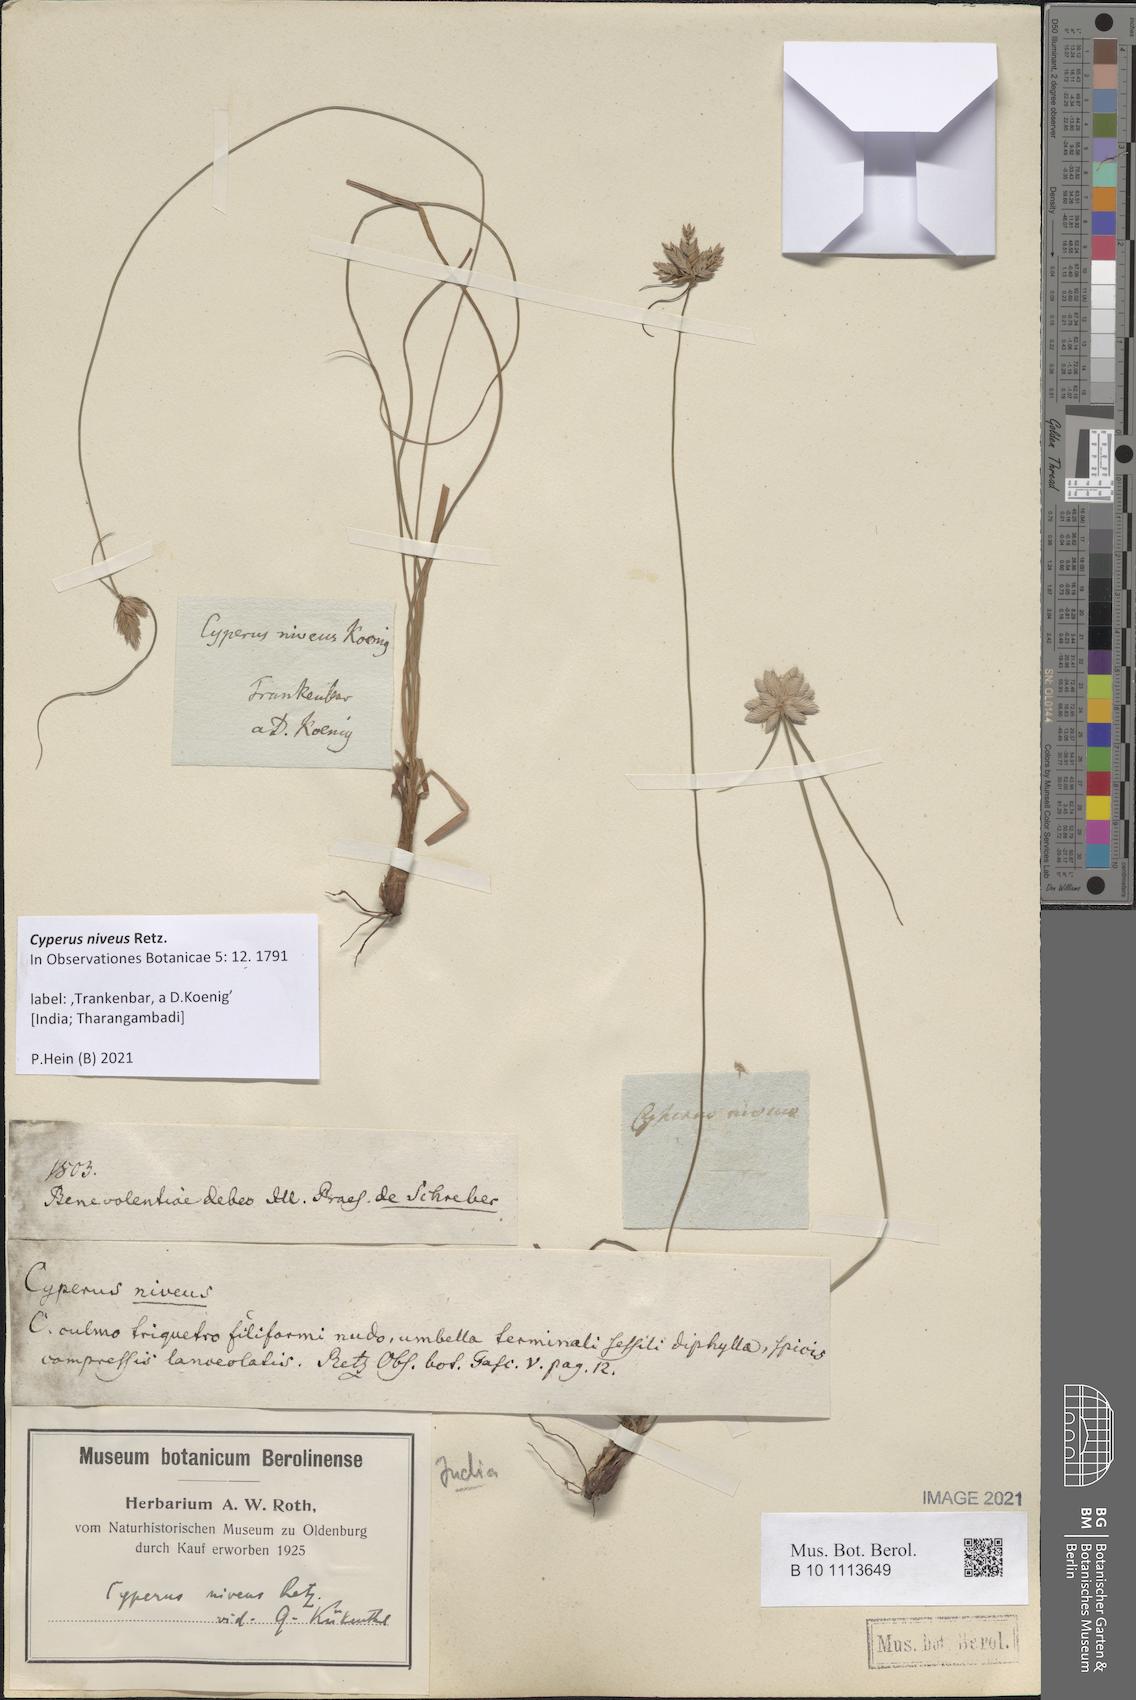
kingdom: Plantae
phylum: Tracheophyta
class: Liliopsida
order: Poales
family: Cyperaceae
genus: Cyperus
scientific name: Cyperus niveus
